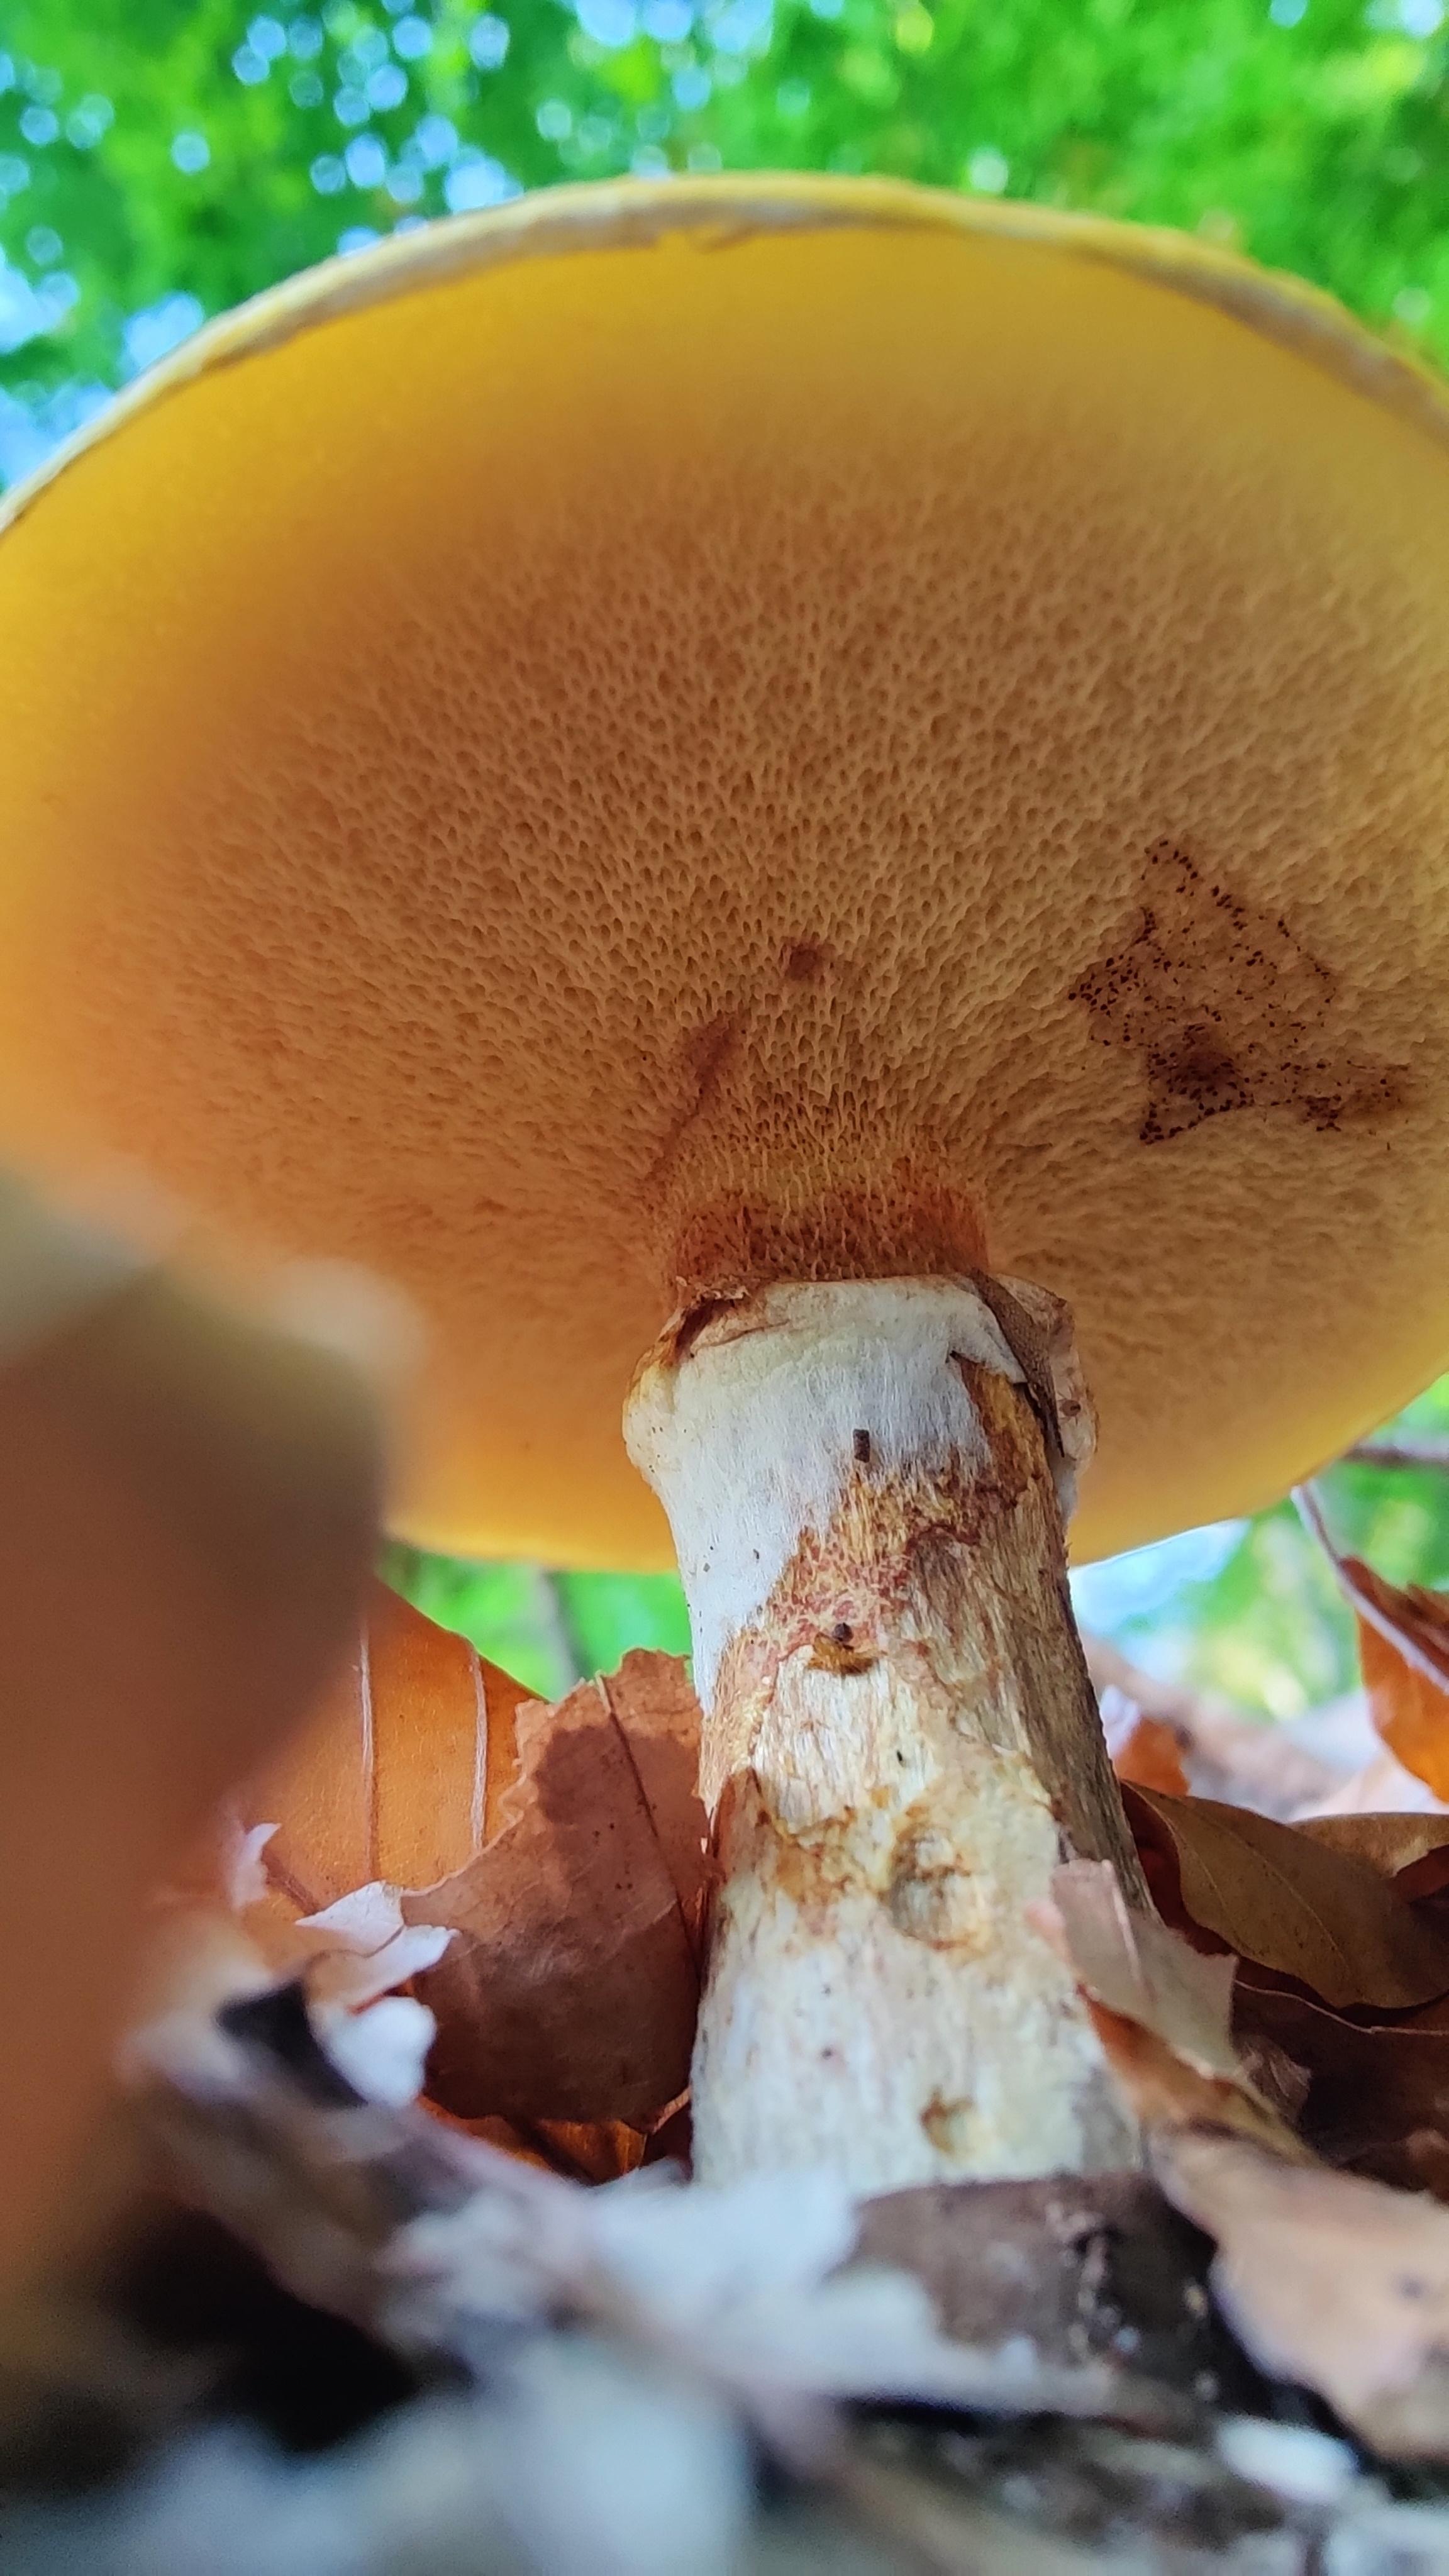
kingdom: Fungi
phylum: Basidiomycota
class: Agaricomycetes
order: Boletales
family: Suillaceae
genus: Suillus
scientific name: Suillus grevillei
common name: lærke-slimrørhat
